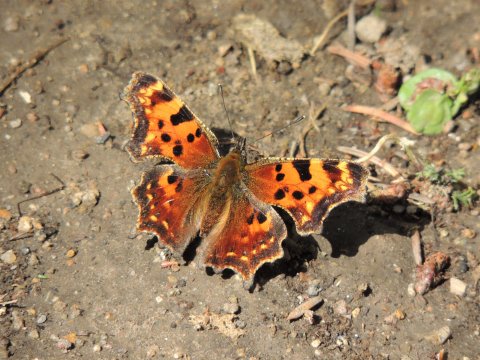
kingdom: Animalia
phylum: Arthropoda
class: Insecta
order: Lepidoptera
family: Nymphalidae
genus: Polygonia
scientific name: Polygonia faunus
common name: Green Comma
